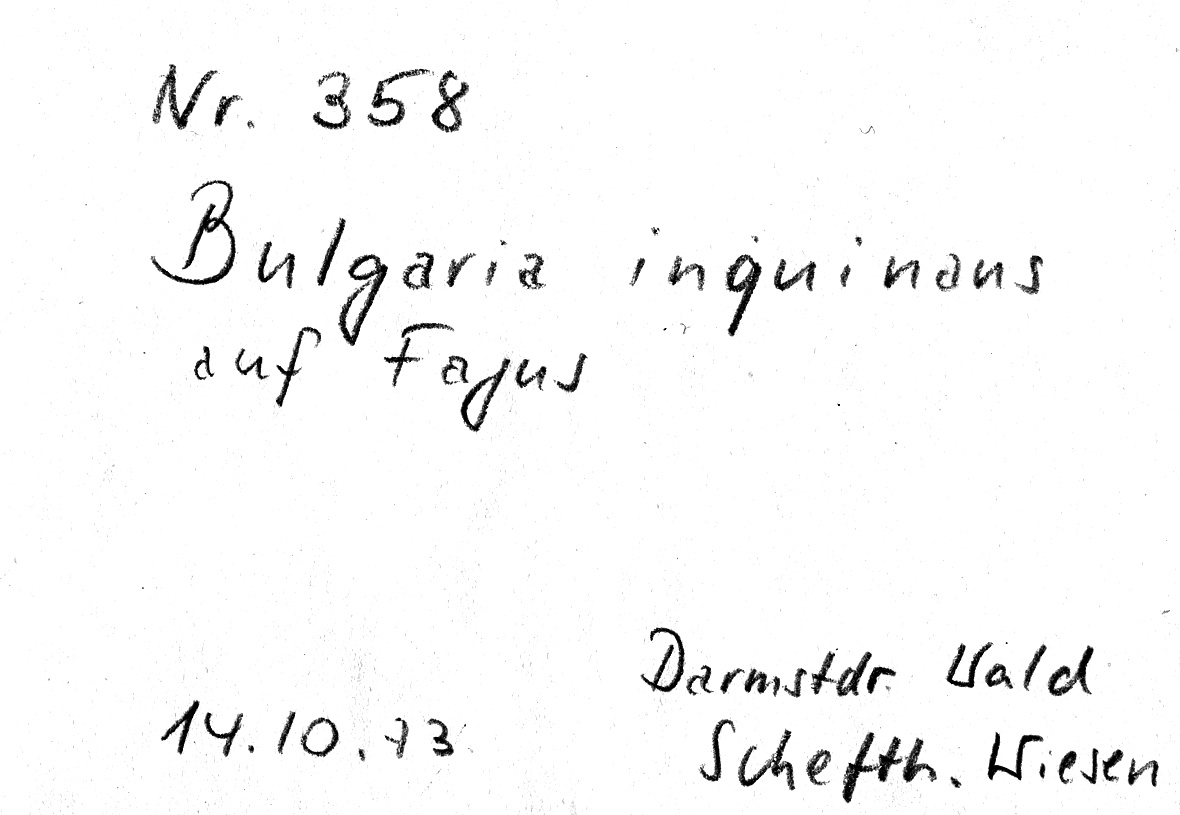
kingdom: Fungi
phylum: Ascomycota
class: Leotiomycetes
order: Phacidiales
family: Phacidiaceae
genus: Bulgaria
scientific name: Bulgaria inquinans
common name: Black bulgar
